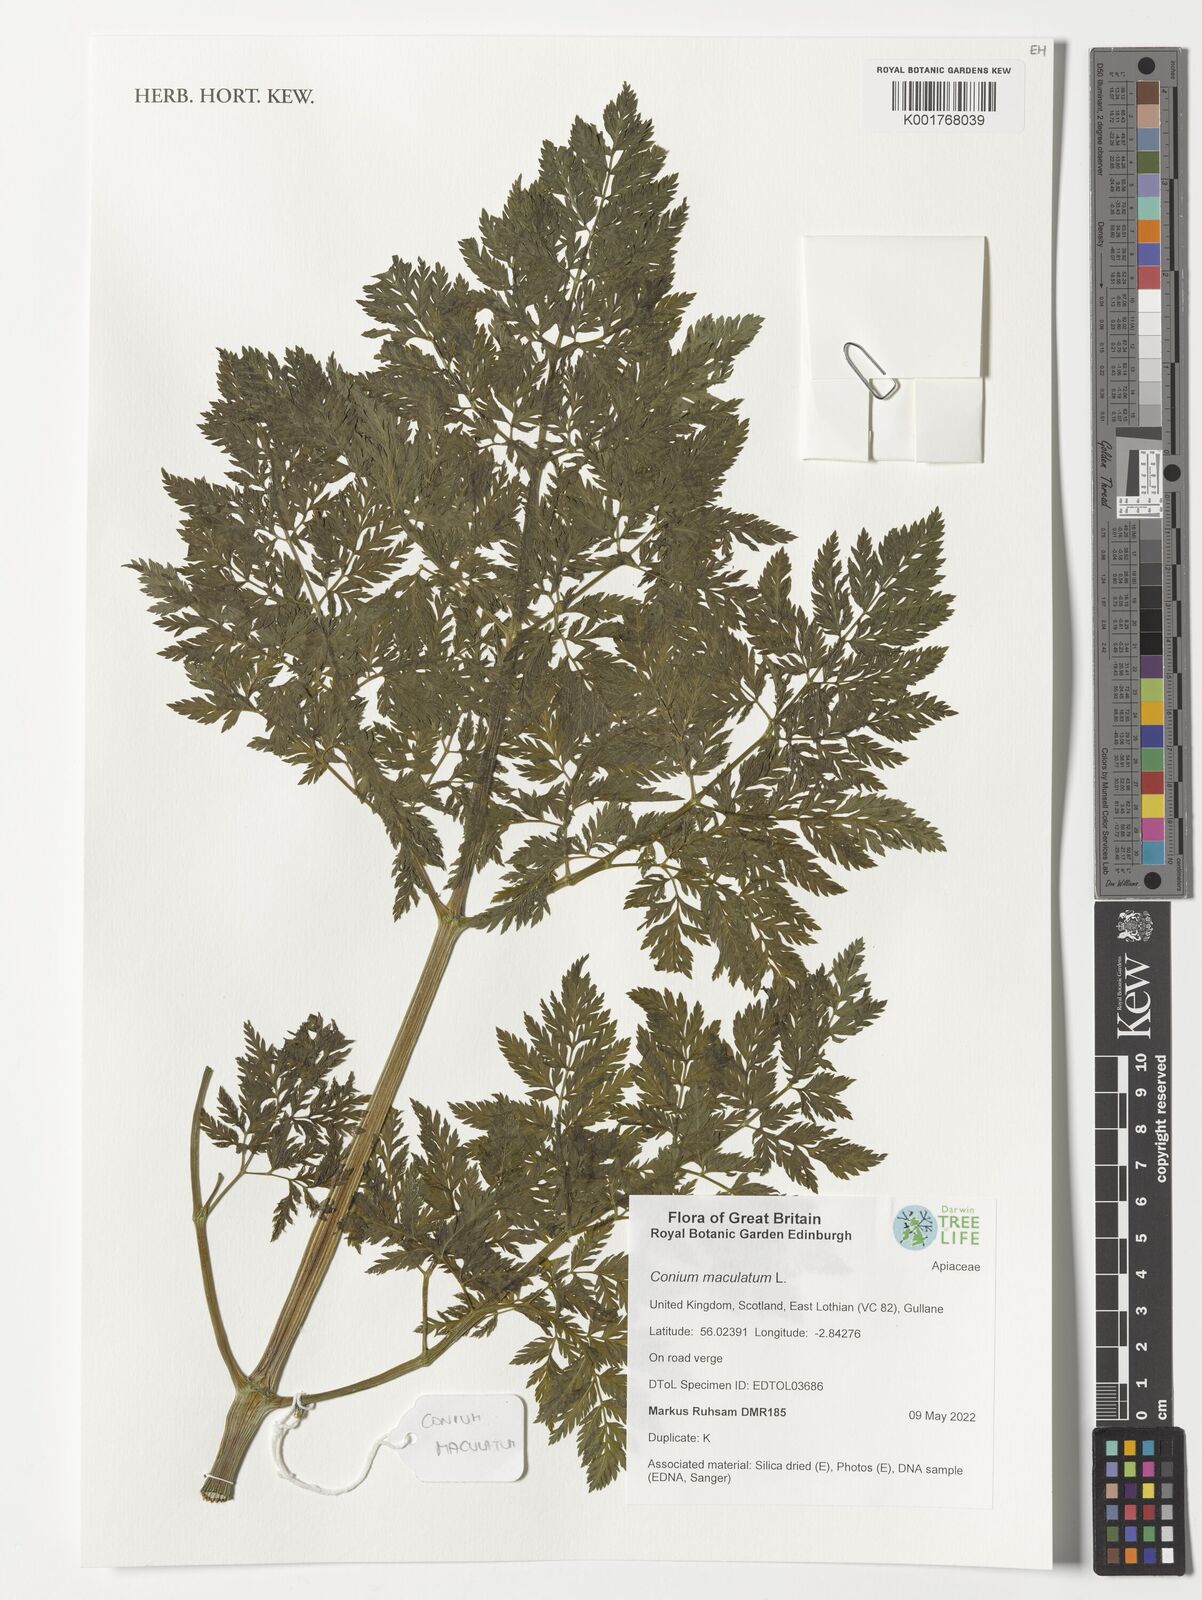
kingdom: Plantae
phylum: Tracheophyta
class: Magnoliopsida
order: Apiales
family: Apiaceae
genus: Conium
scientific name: Conium maculatum
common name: Hemlock
